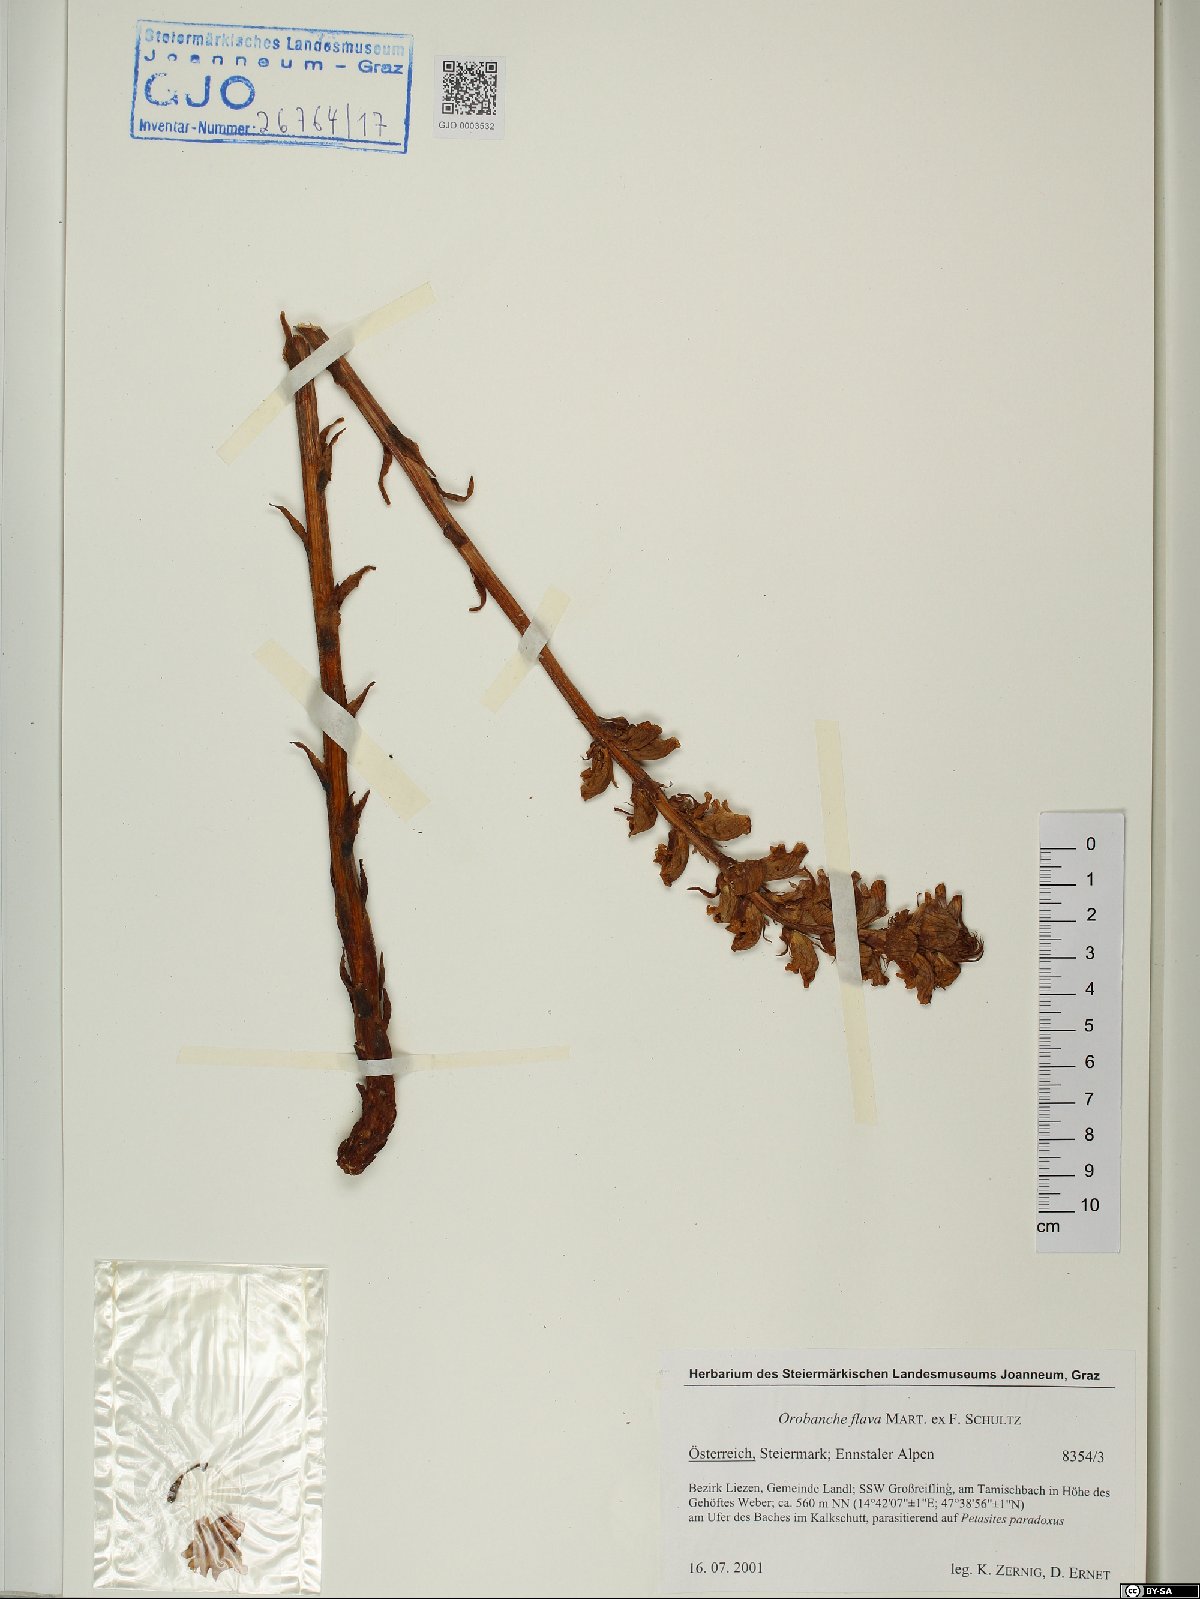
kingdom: Plantae
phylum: Tracheophyta
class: Magnoliopsida
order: Lamiales
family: Orobanchaceae
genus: Orobanche
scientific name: Orobanche flava
